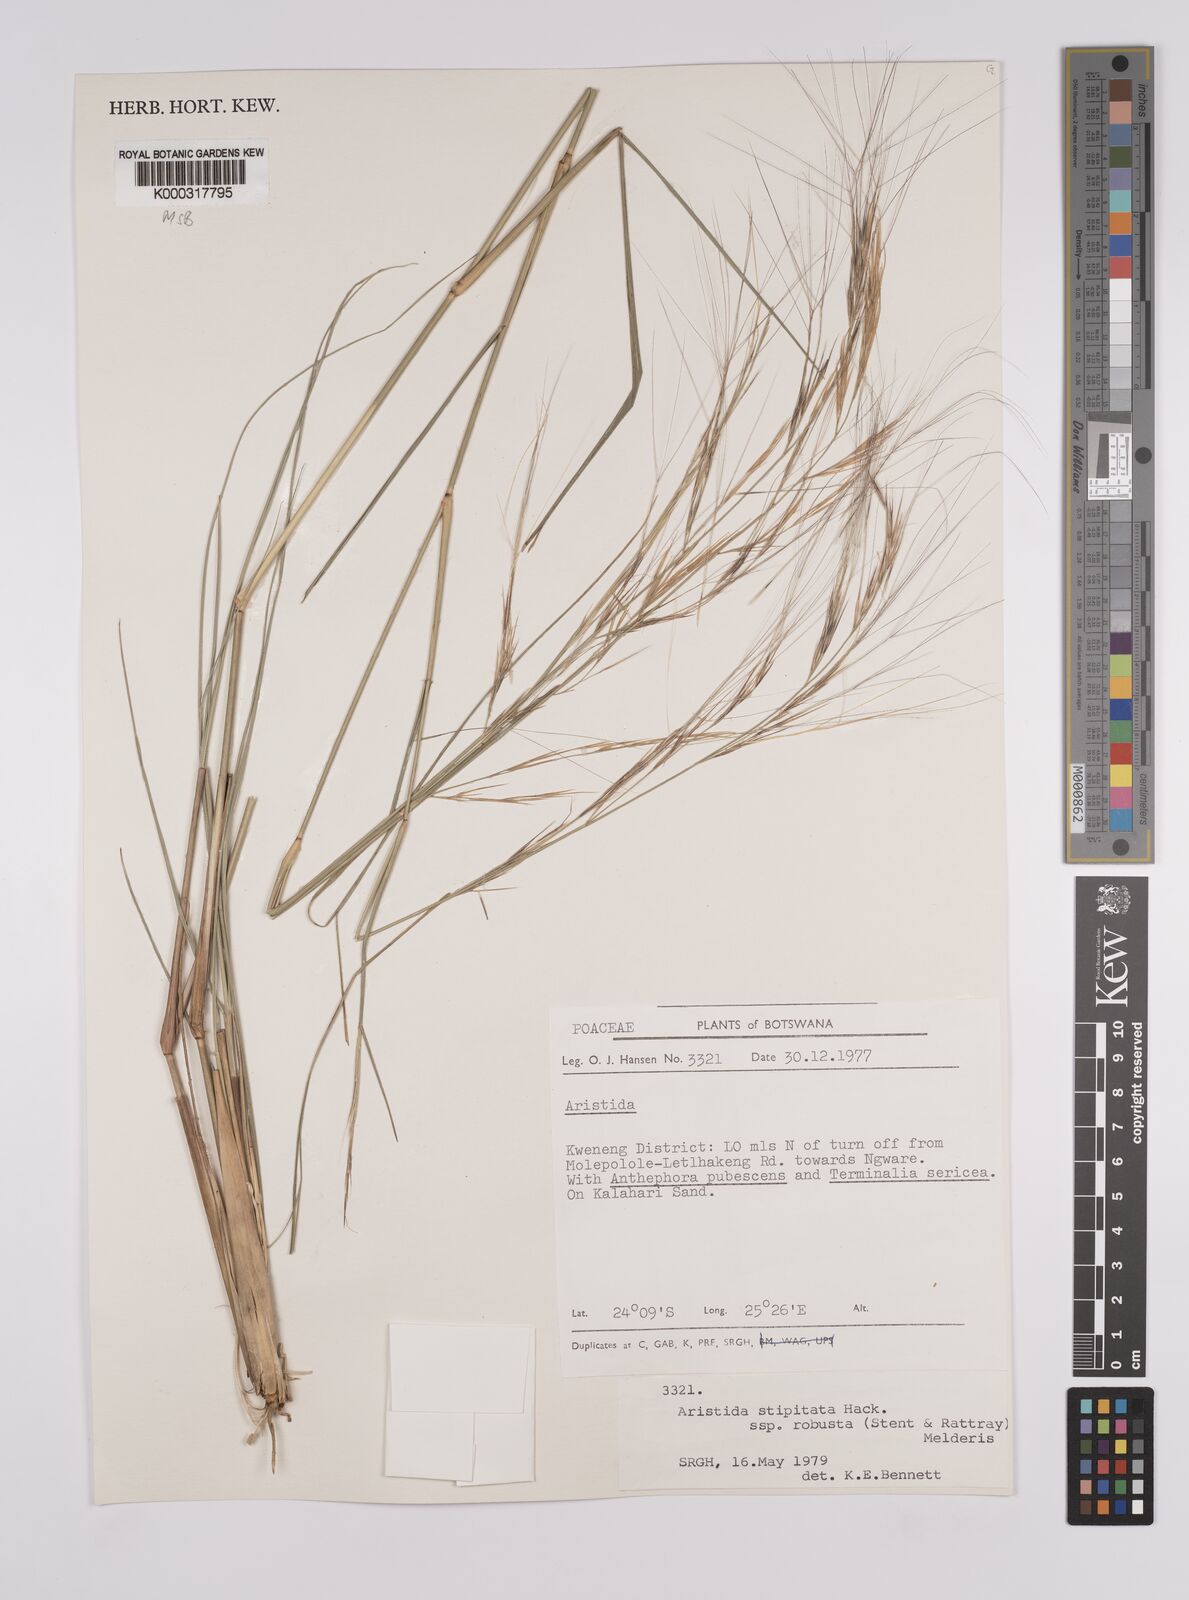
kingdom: Plantae
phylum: Tracheophyta
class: Liliopsida
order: Poales
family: Poaceae
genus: Aristida
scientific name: Aristida stipitata
